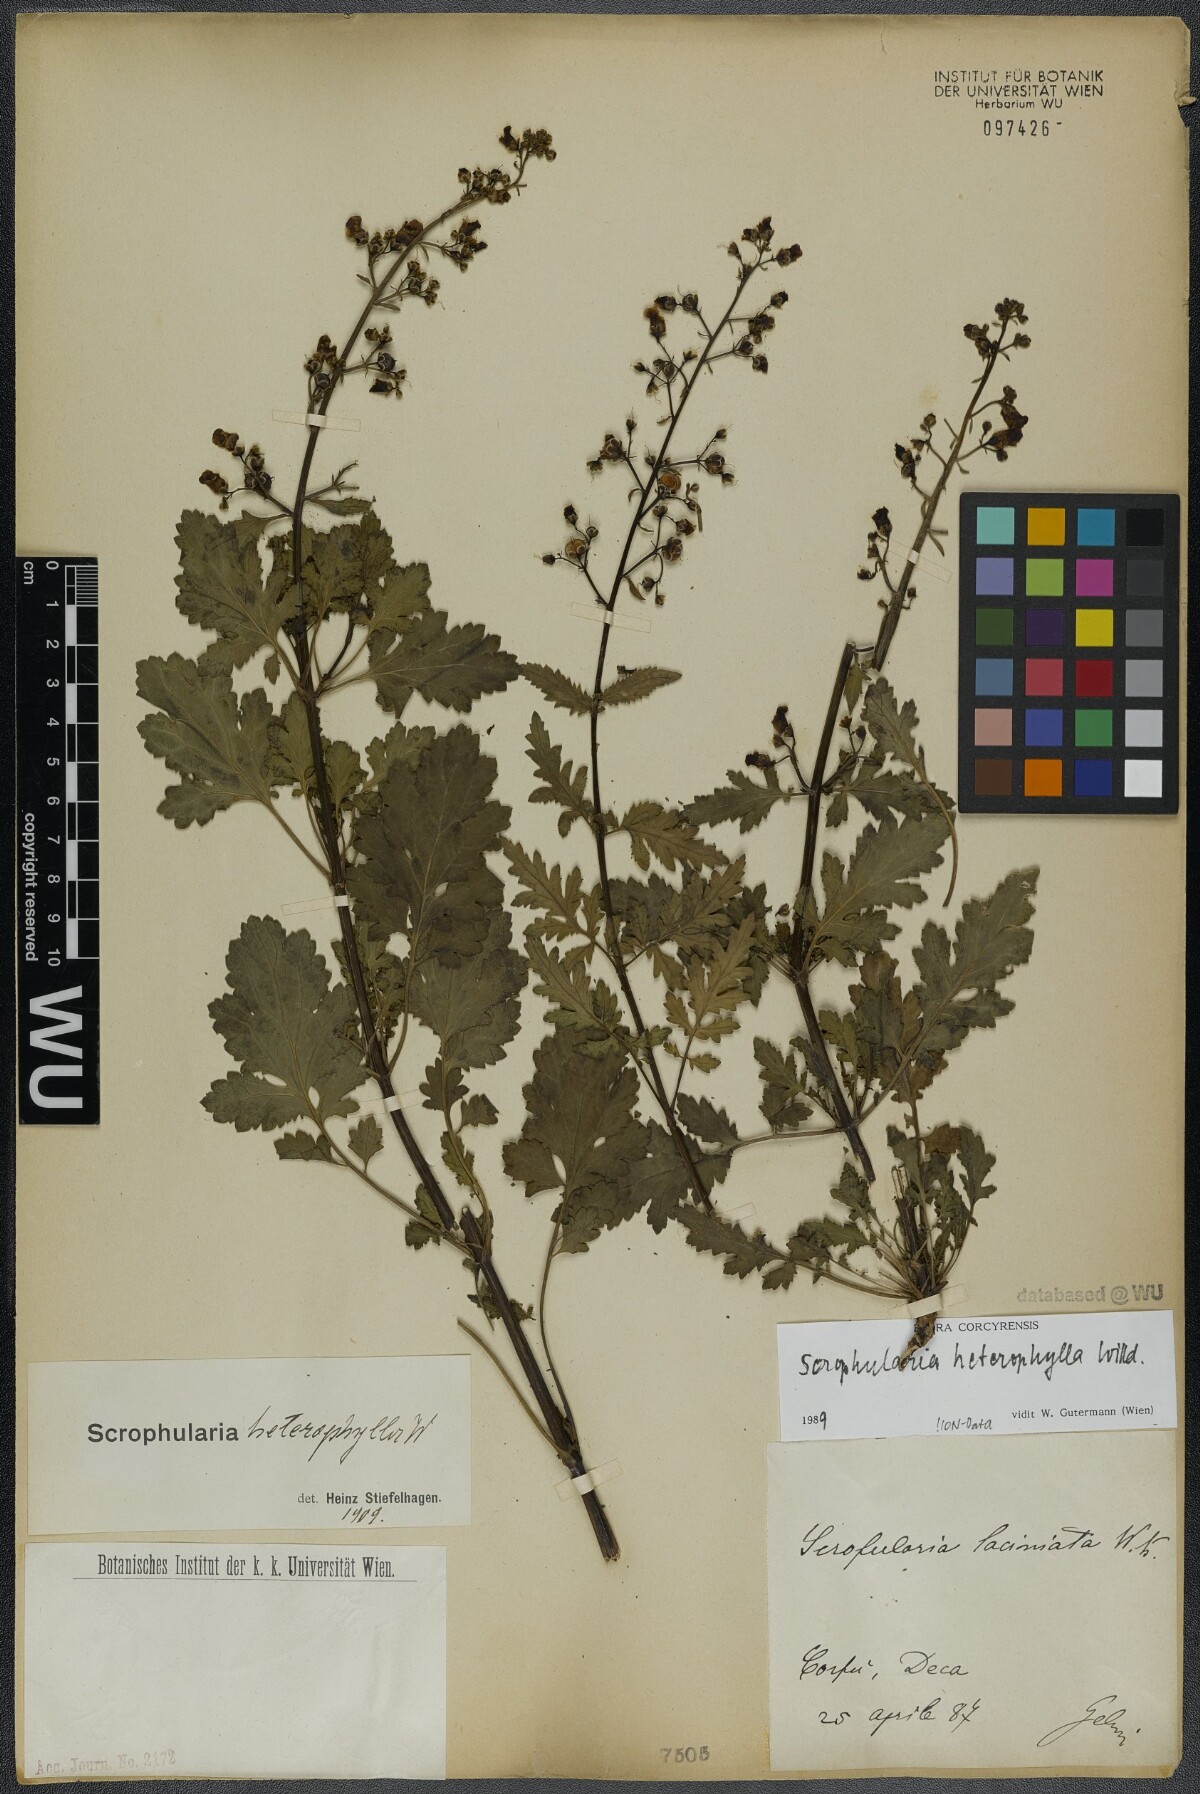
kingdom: Plantae
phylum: Tracheophyta
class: Magnoliopsida
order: Lamiales
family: Scrophulariaceae
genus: Scrophularia
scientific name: Scrophularia heterophylla
